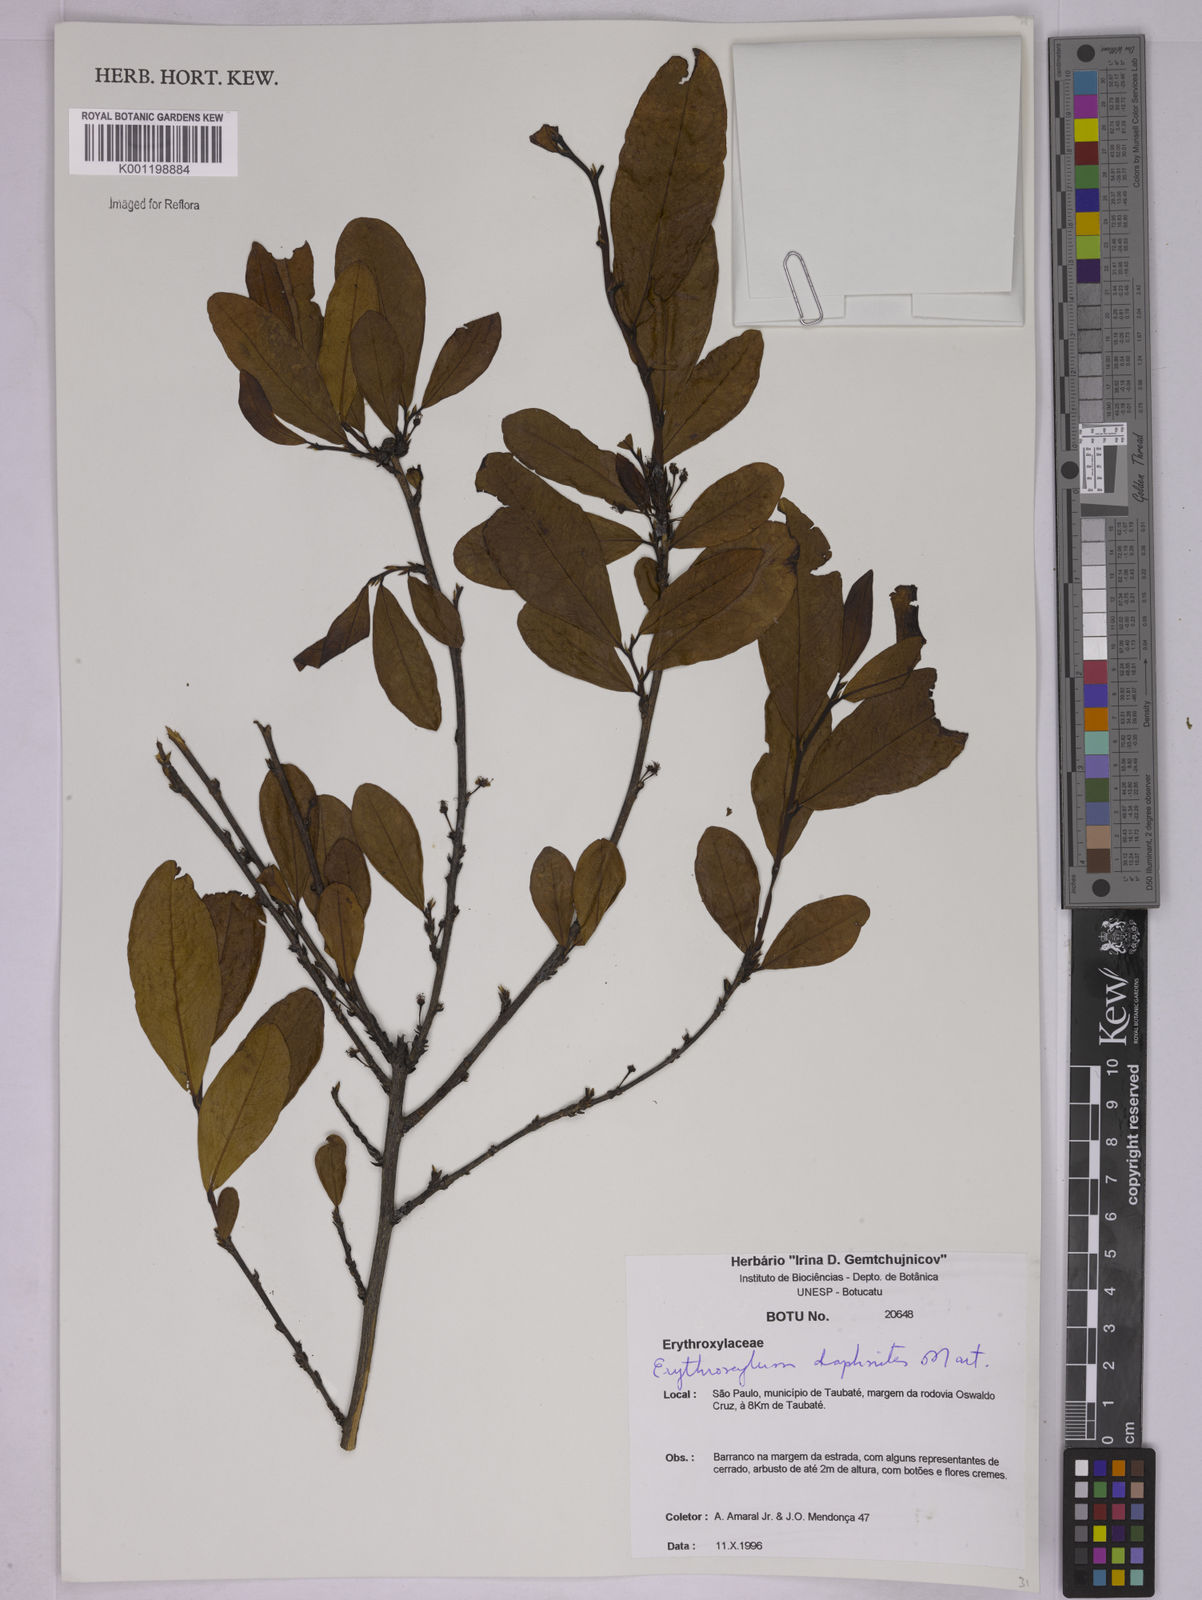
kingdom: Plantae
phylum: Tracheophyta
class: Magnoliopsida
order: Malpighiales
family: Erythroxylaceae
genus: Erythroxylum
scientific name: Erythroxylum daphnites
